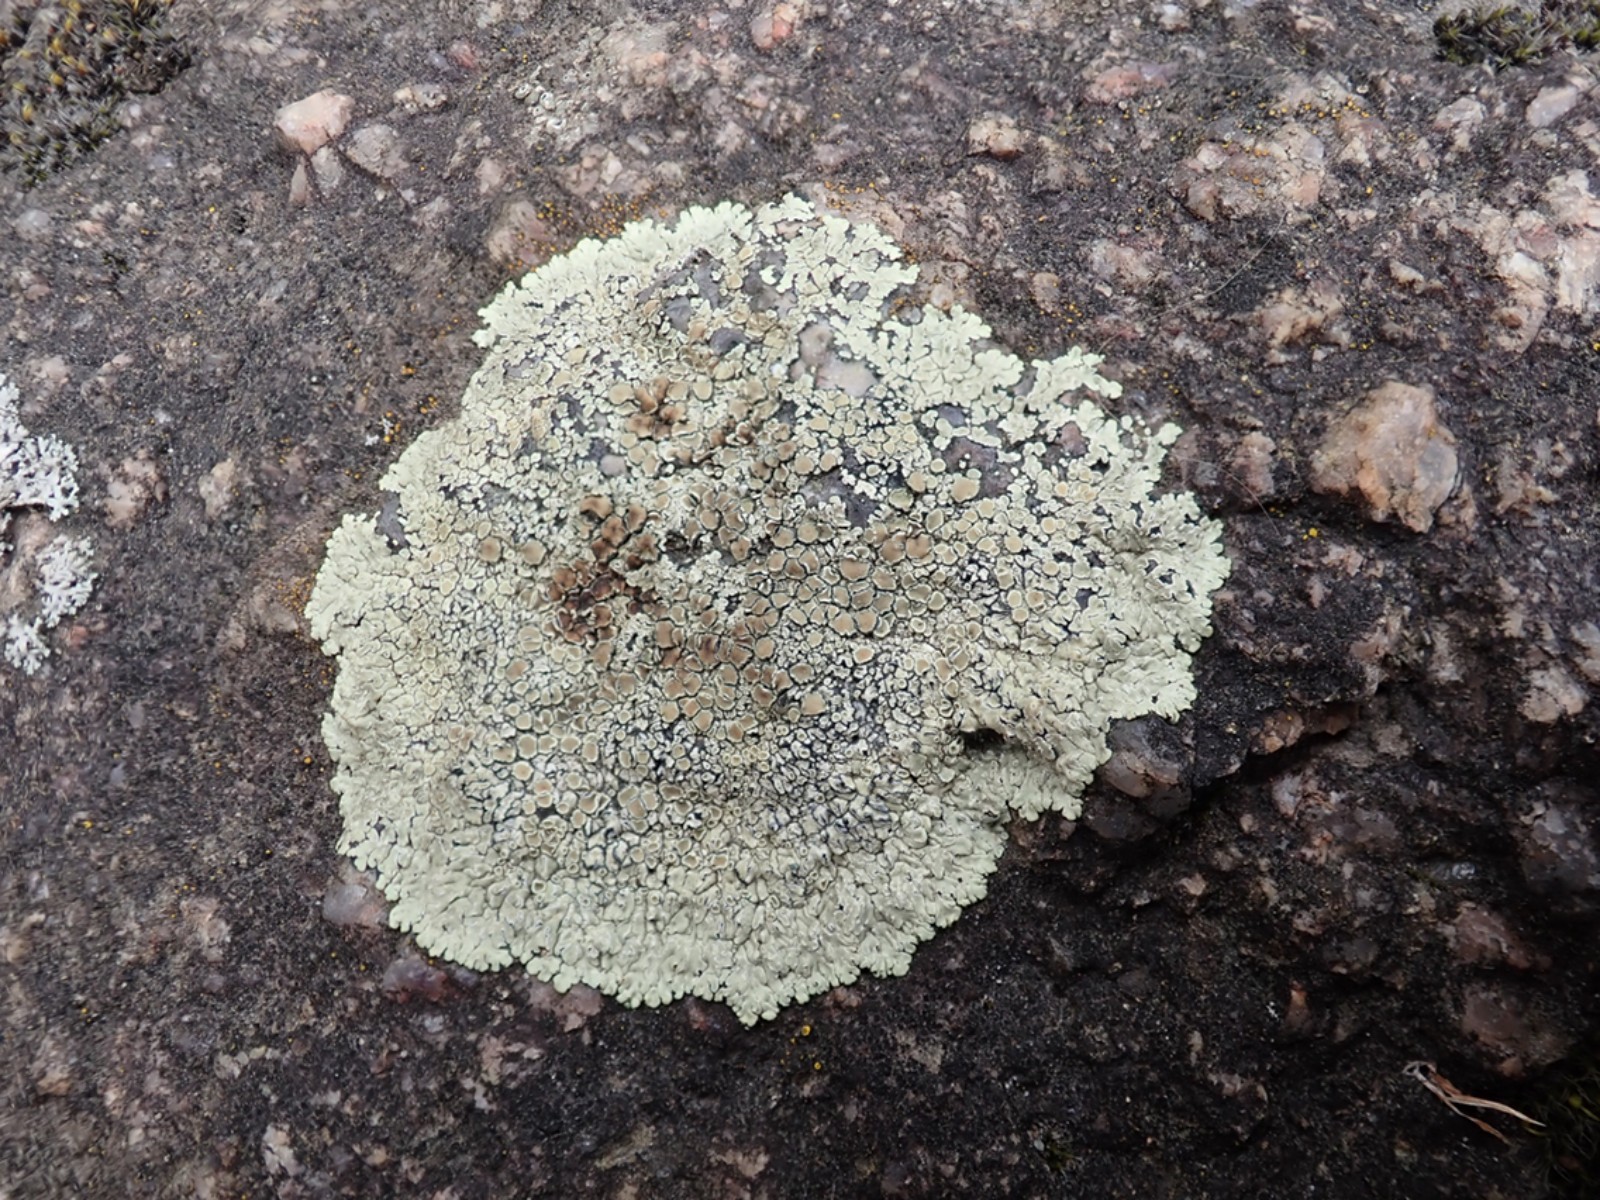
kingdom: Fungi
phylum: Ascomycota
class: Lecanoromycetes
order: Lecanorales
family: Lecanoraceae
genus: Protoparmeliopsis
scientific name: Protoparmeliopsis muralis
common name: randfliget kantskivelav
